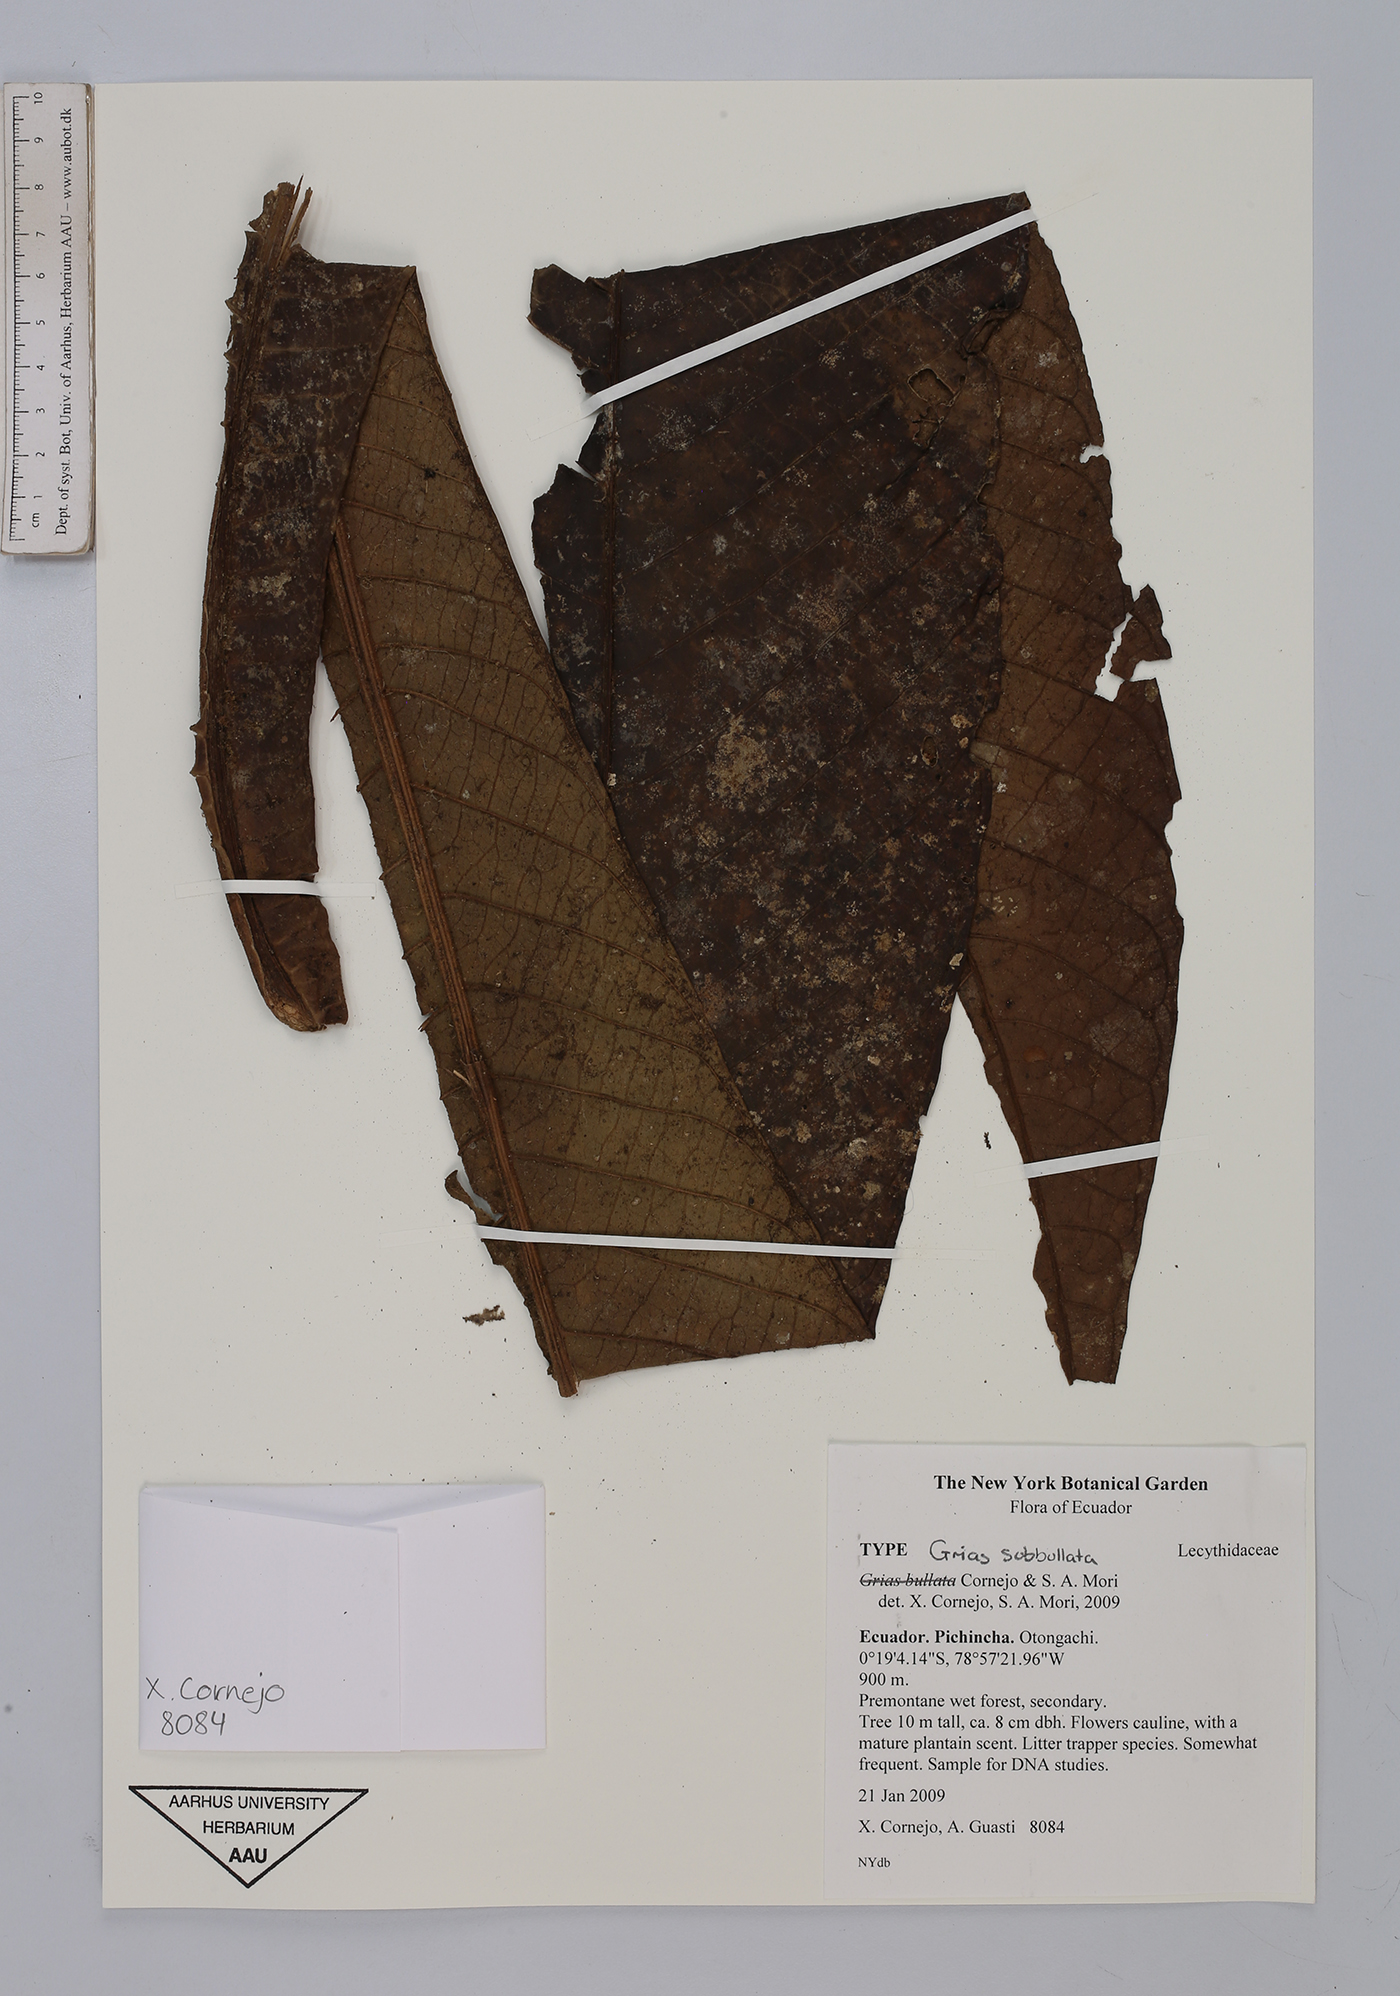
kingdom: Plantae
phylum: Tracheophyta
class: Magnoliopsida
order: Ericales
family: Lecythidaceae
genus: Grias
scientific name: Grias subbullata
